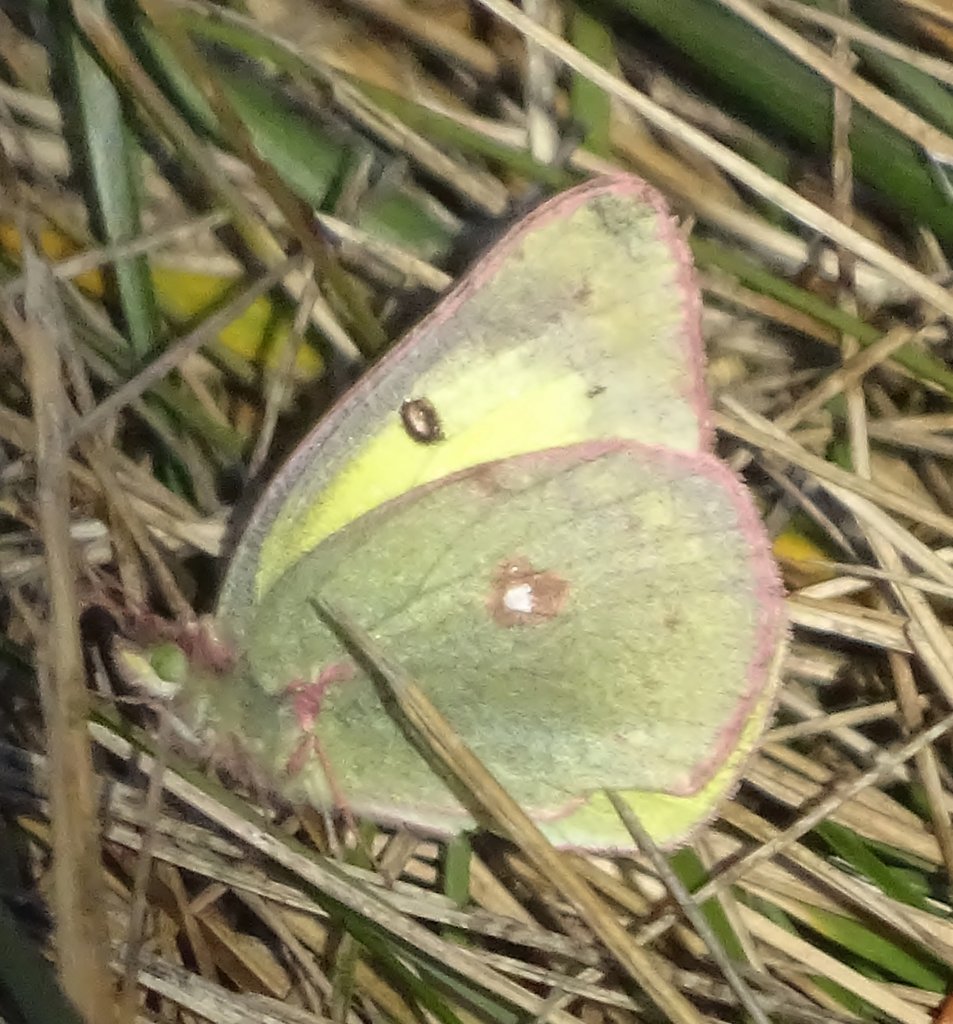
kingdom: Animalia
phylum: Arthropoda
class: Insecta
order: Lepidoptera
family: Pieridae
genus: Colias
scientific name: Colias philodice
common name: Clouded Sulphur
